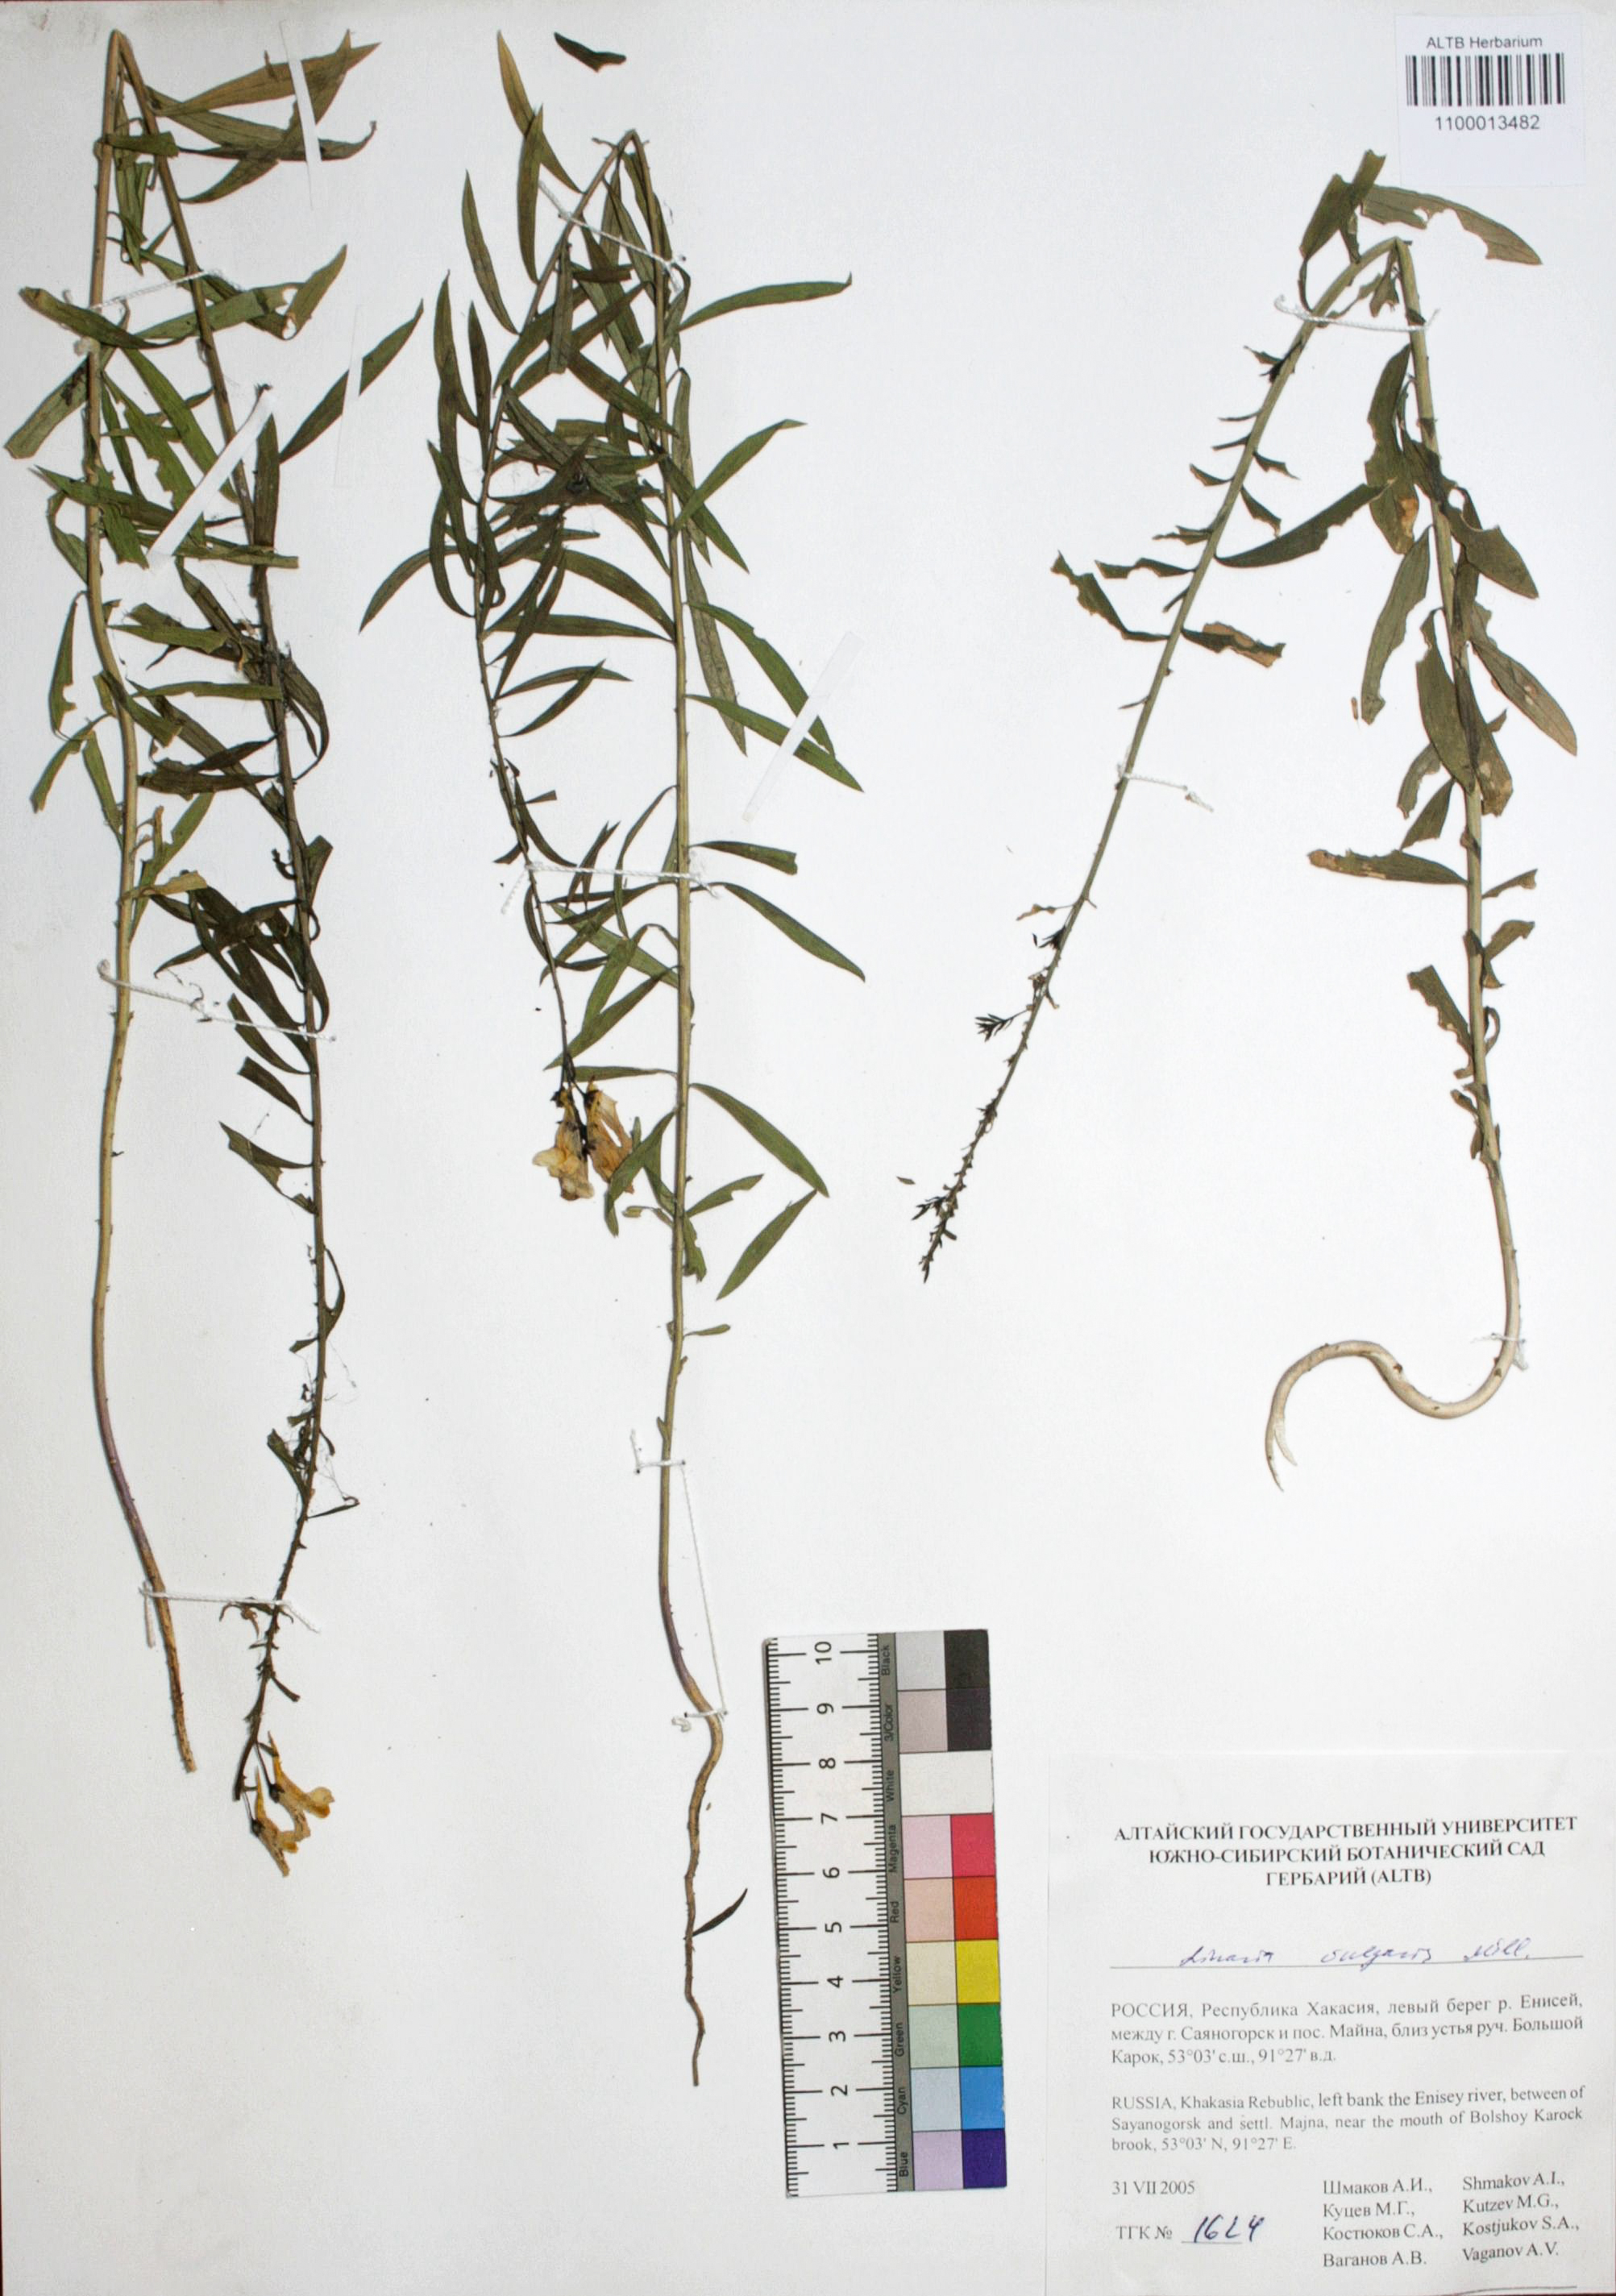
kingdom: Plantae
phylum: Tracheophyta
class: Magnoliopsida
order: Lamiales
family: Plantaginaceae
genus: Linaria
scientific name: Linaria vulgaris
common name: Butter and eggs
